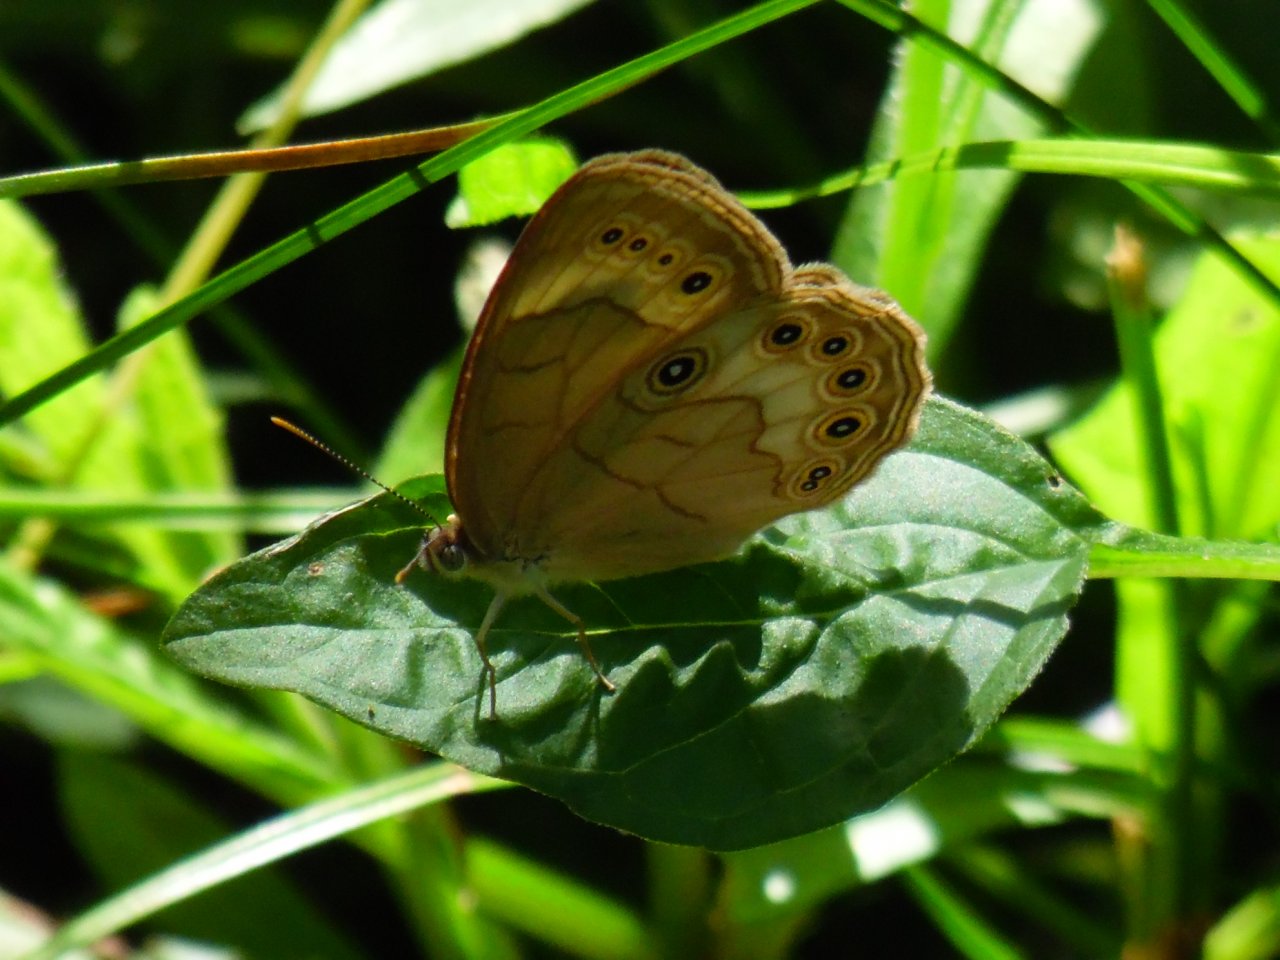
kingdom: Animalia
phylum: Arthropoda
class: Insecta
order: Lepidoptera
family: Nymphalidae
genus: Lethe
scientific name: Lethe eurydice
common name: Appalachian Eyed Brown
